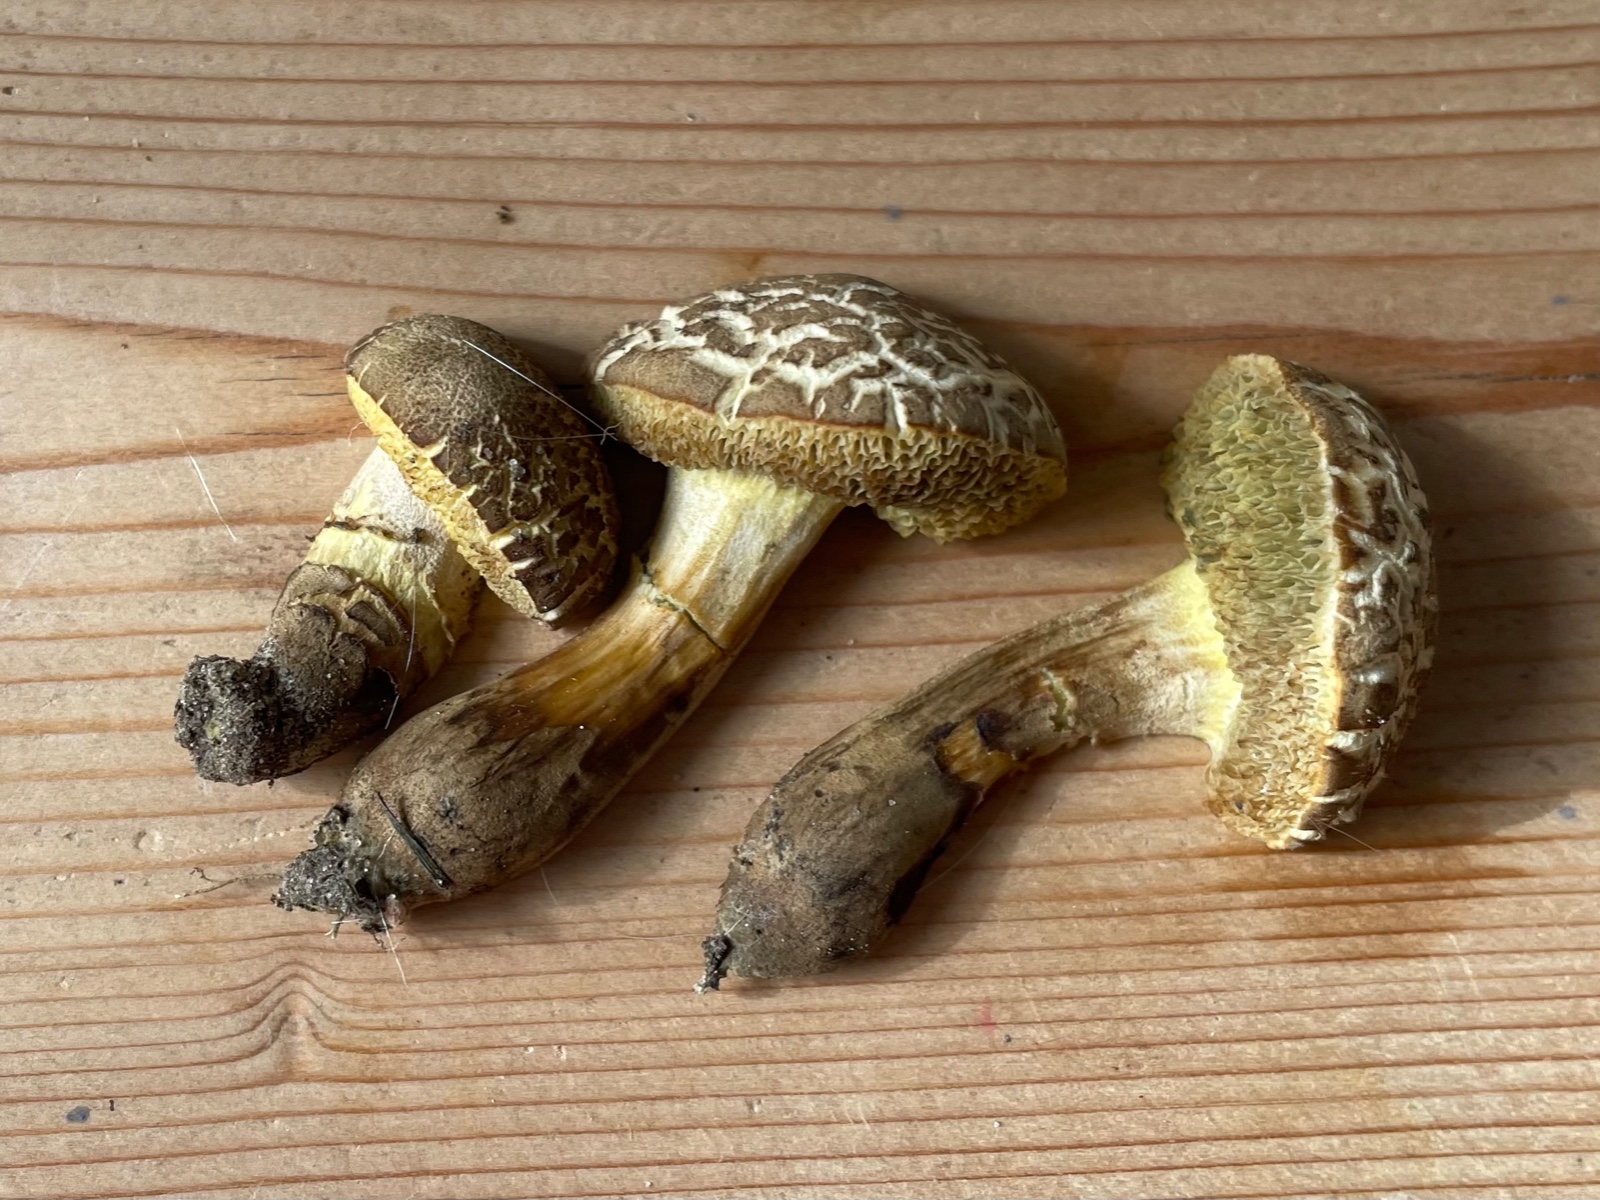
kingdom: Fungi
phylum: Basidiomycota
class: Agaricomycetes
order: Boletales
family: Boletaceae
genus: Xerocomellus
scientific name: Xerocomellus porosporus
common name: hvidsprukken rørhat
